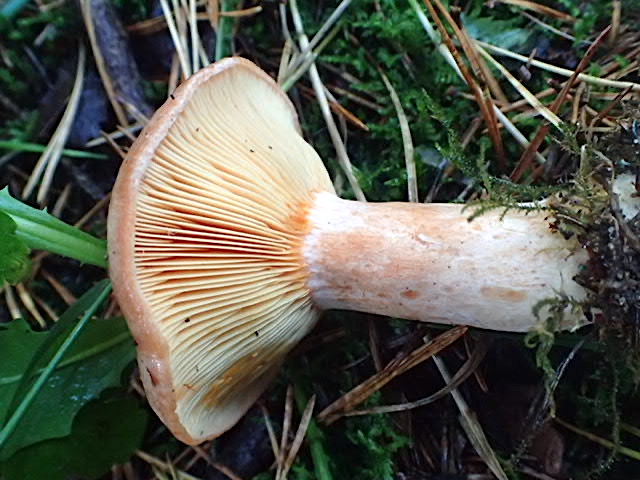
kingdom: Fungi
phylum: Basidiomycota
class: Agaricomycetes
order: Russulales
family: Russulaceae
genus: Lactarius
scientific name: Lactarius deliciosus
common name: velsmagende mælkehat
